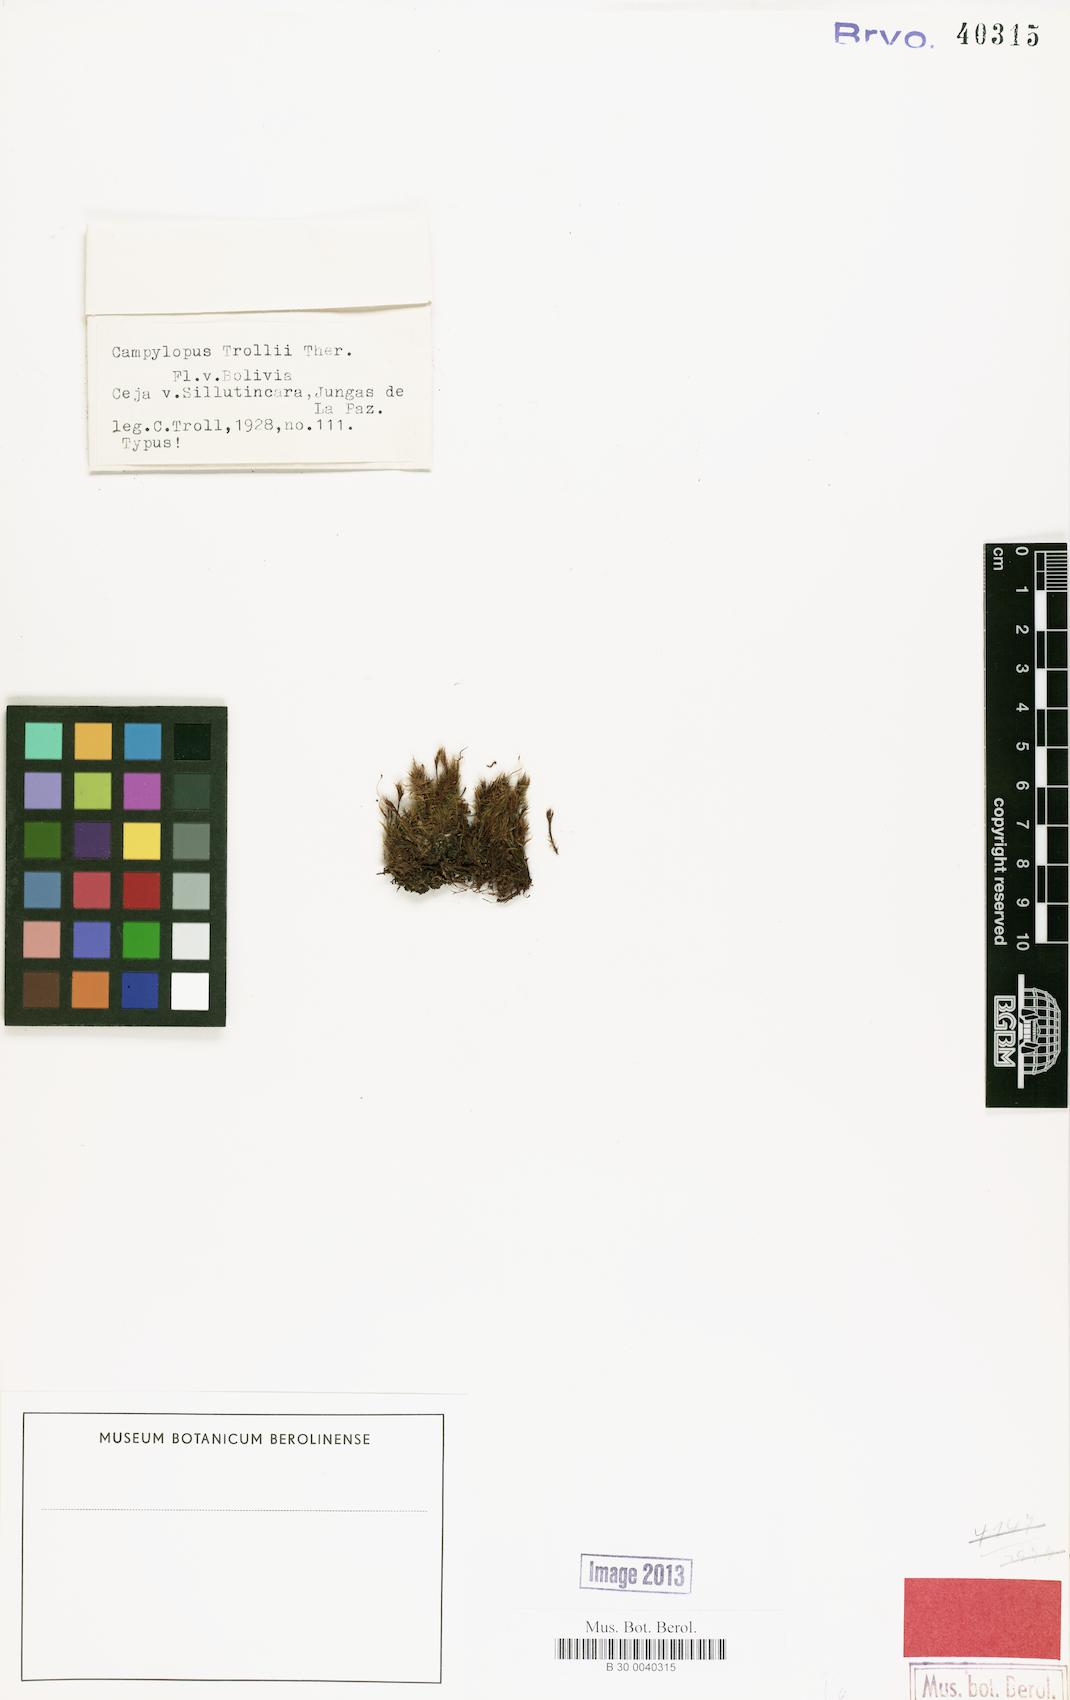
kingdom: Plantae
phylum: Bryophyta
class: Bryopsida
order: Dicranales
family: Leucobryaceae
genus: Campylopus
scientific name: Campylopus pauper
